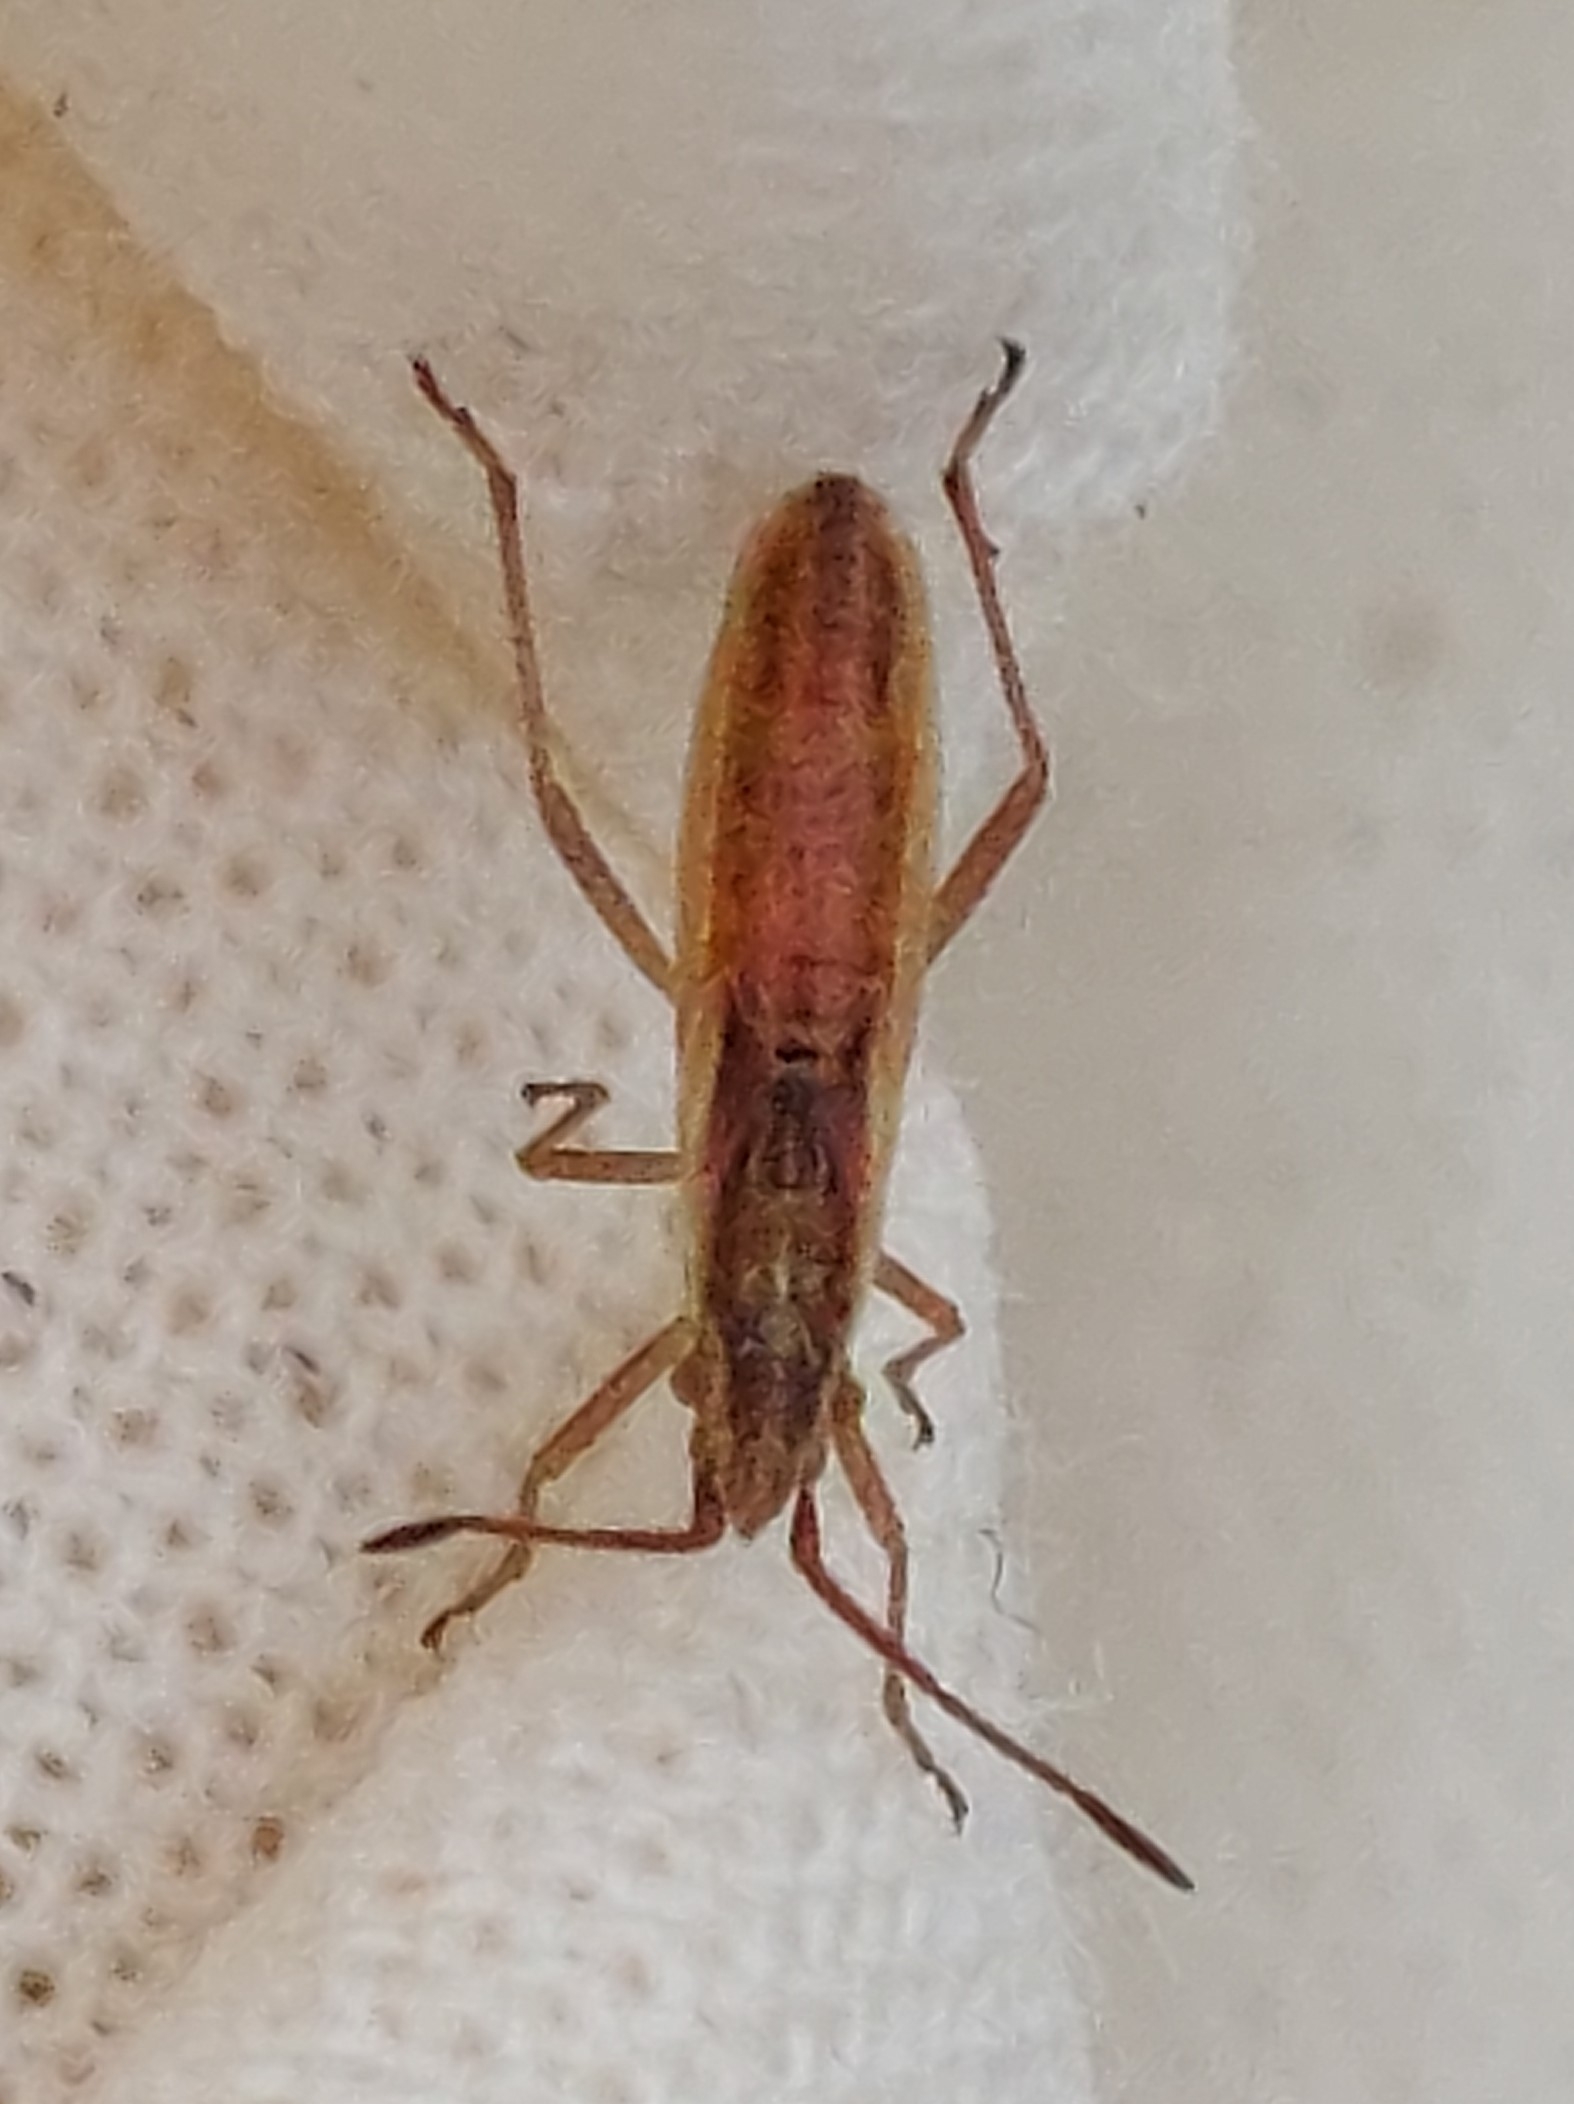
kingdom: Animalia
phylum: Arthropoda
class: Insecta
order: Hemiptera
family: Rhopalidae
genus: Myrmus
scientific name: Myrmus miriformis
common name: Lille stråtæge
